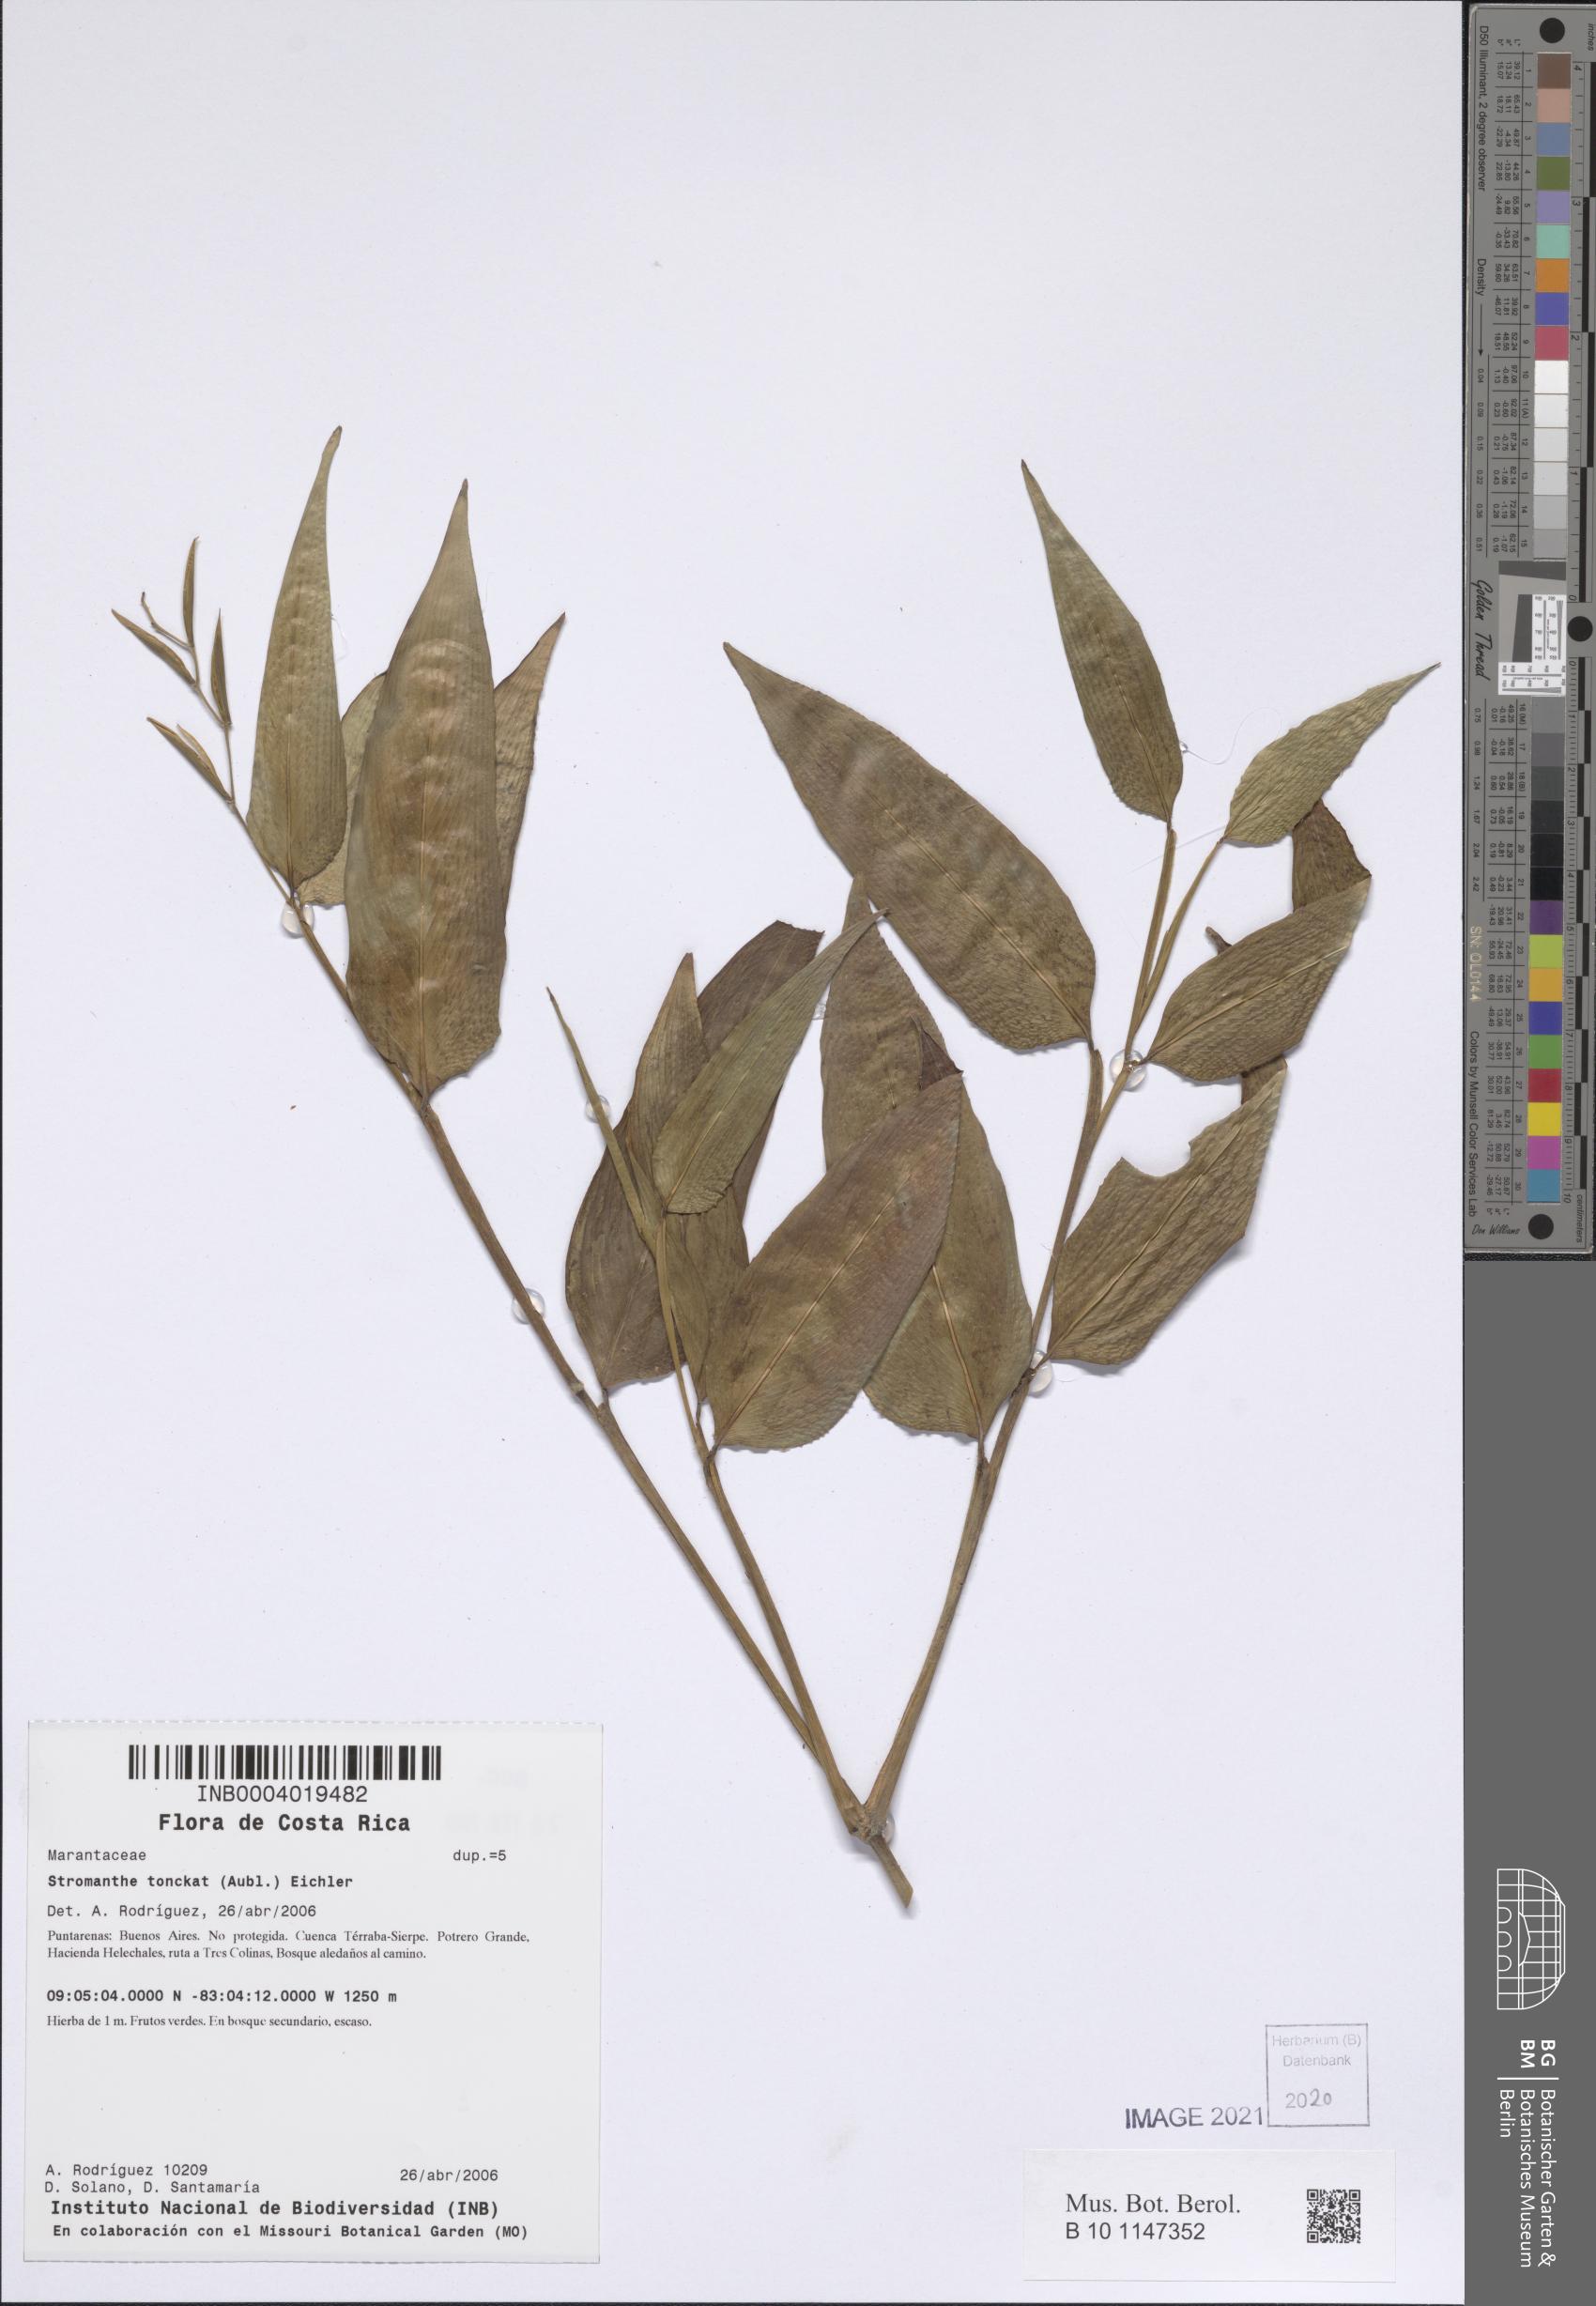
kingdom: Plantae
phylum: Tracheophyta
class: Liliopsida
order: Zingiberales
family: Marantaceae
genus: Stromanthe
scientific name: Stromanthe tonckat
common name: Stromanthe
